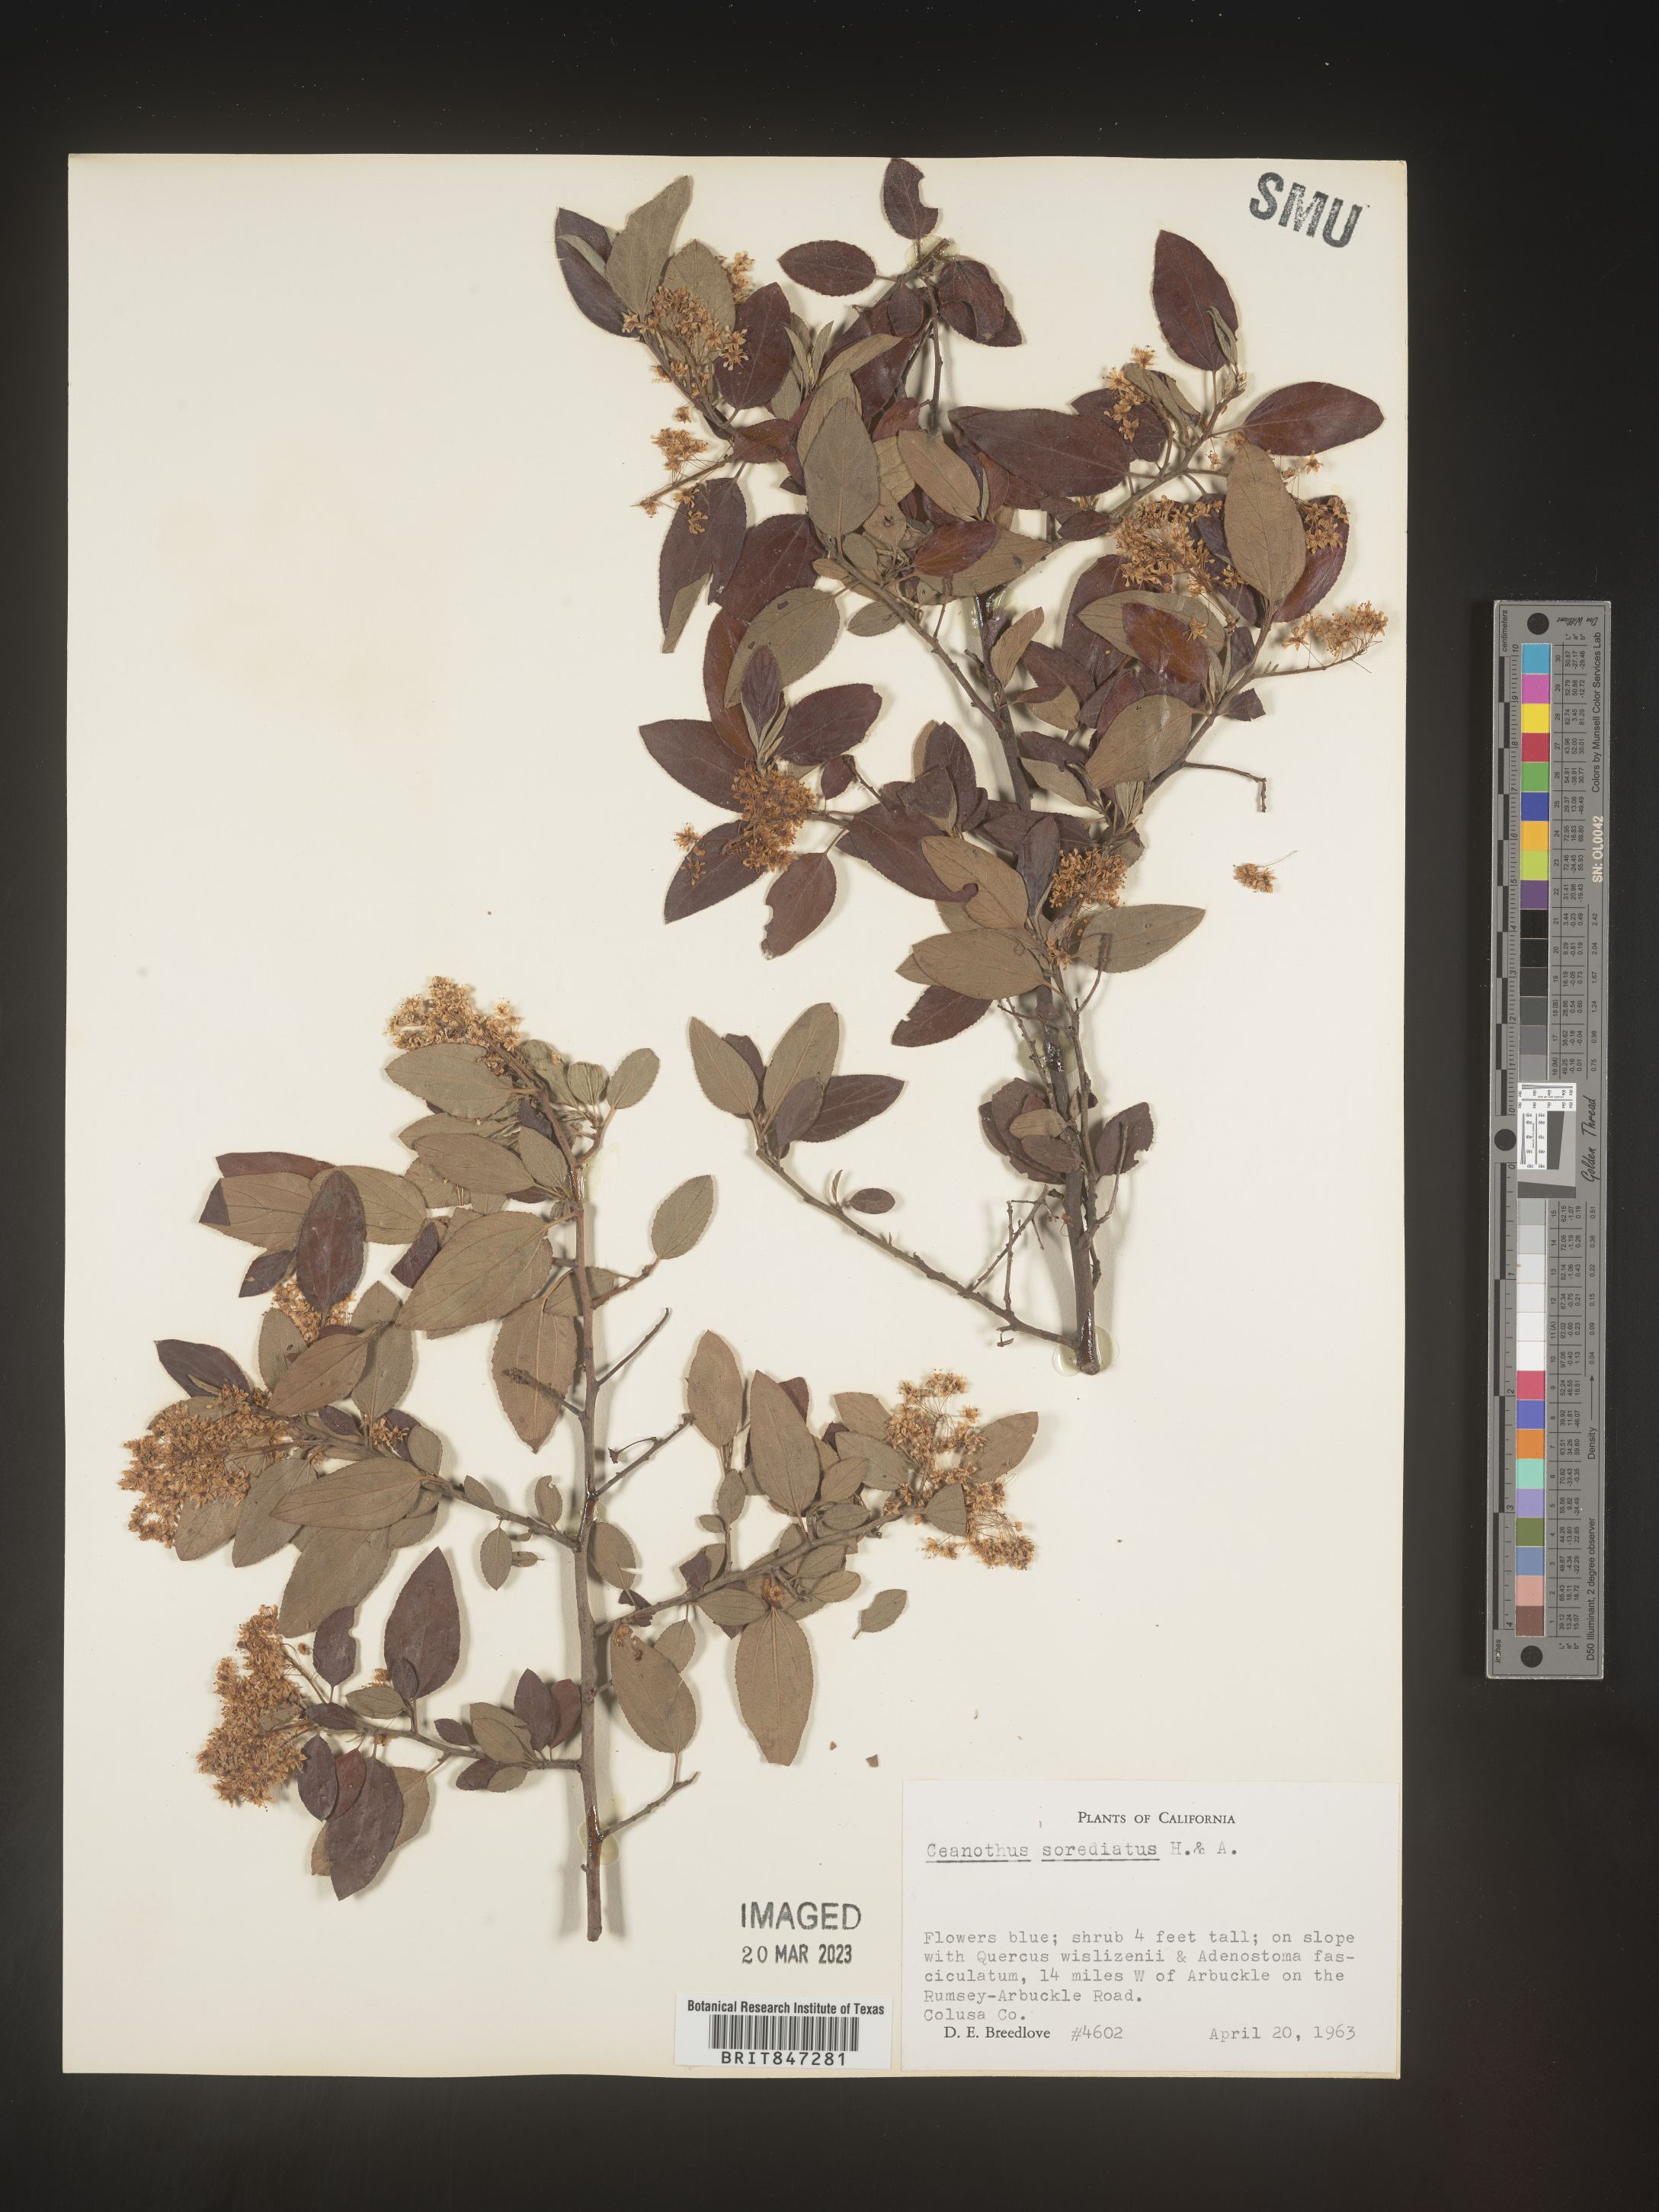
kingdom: Plantae
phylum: Tracheophyta
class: Magnoliopsida
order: Rosales
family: Rhamnaceae
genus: Ceanothus
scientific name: Ceanothus
